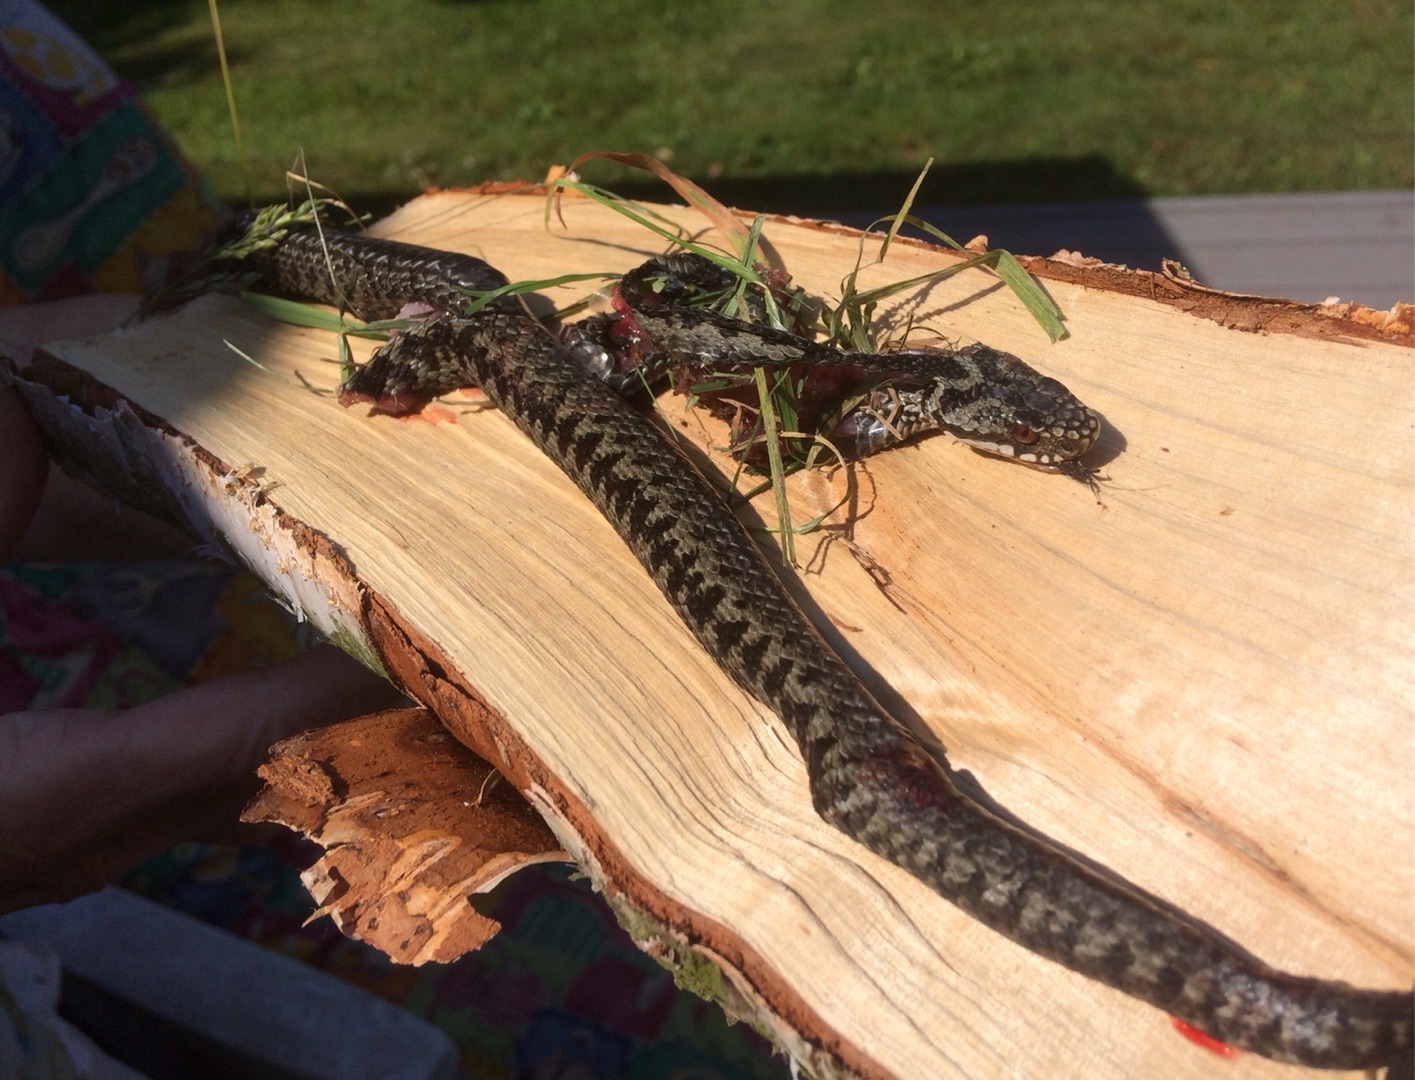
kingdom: Animalia
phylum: Chordata
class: Squamata
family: Viperidae
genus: Vipera
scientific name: Vipera berus
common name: Hugorm
